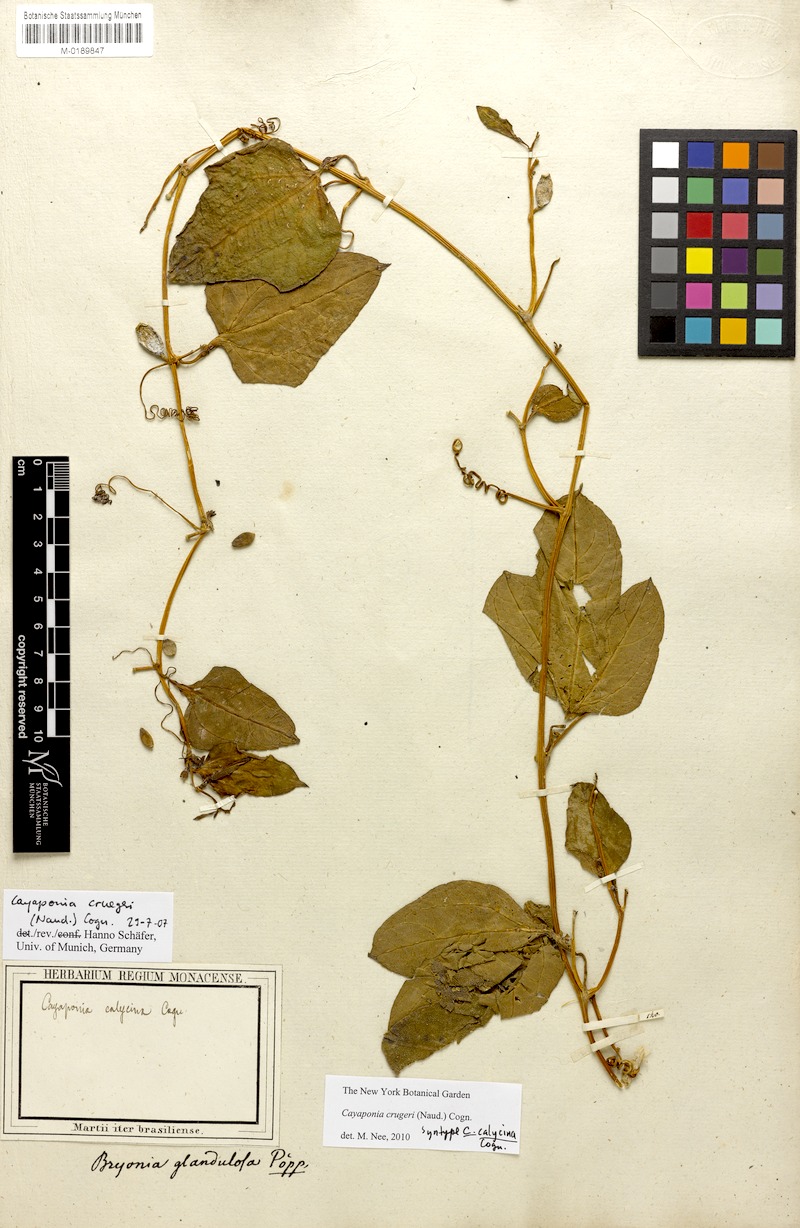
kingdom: Plantae
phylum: Tracheophyta
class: Magnoliopsida
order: Cucurbitales
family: Cucurbitaceae
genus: Cayaponia
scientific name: Cayaponia crugeri
